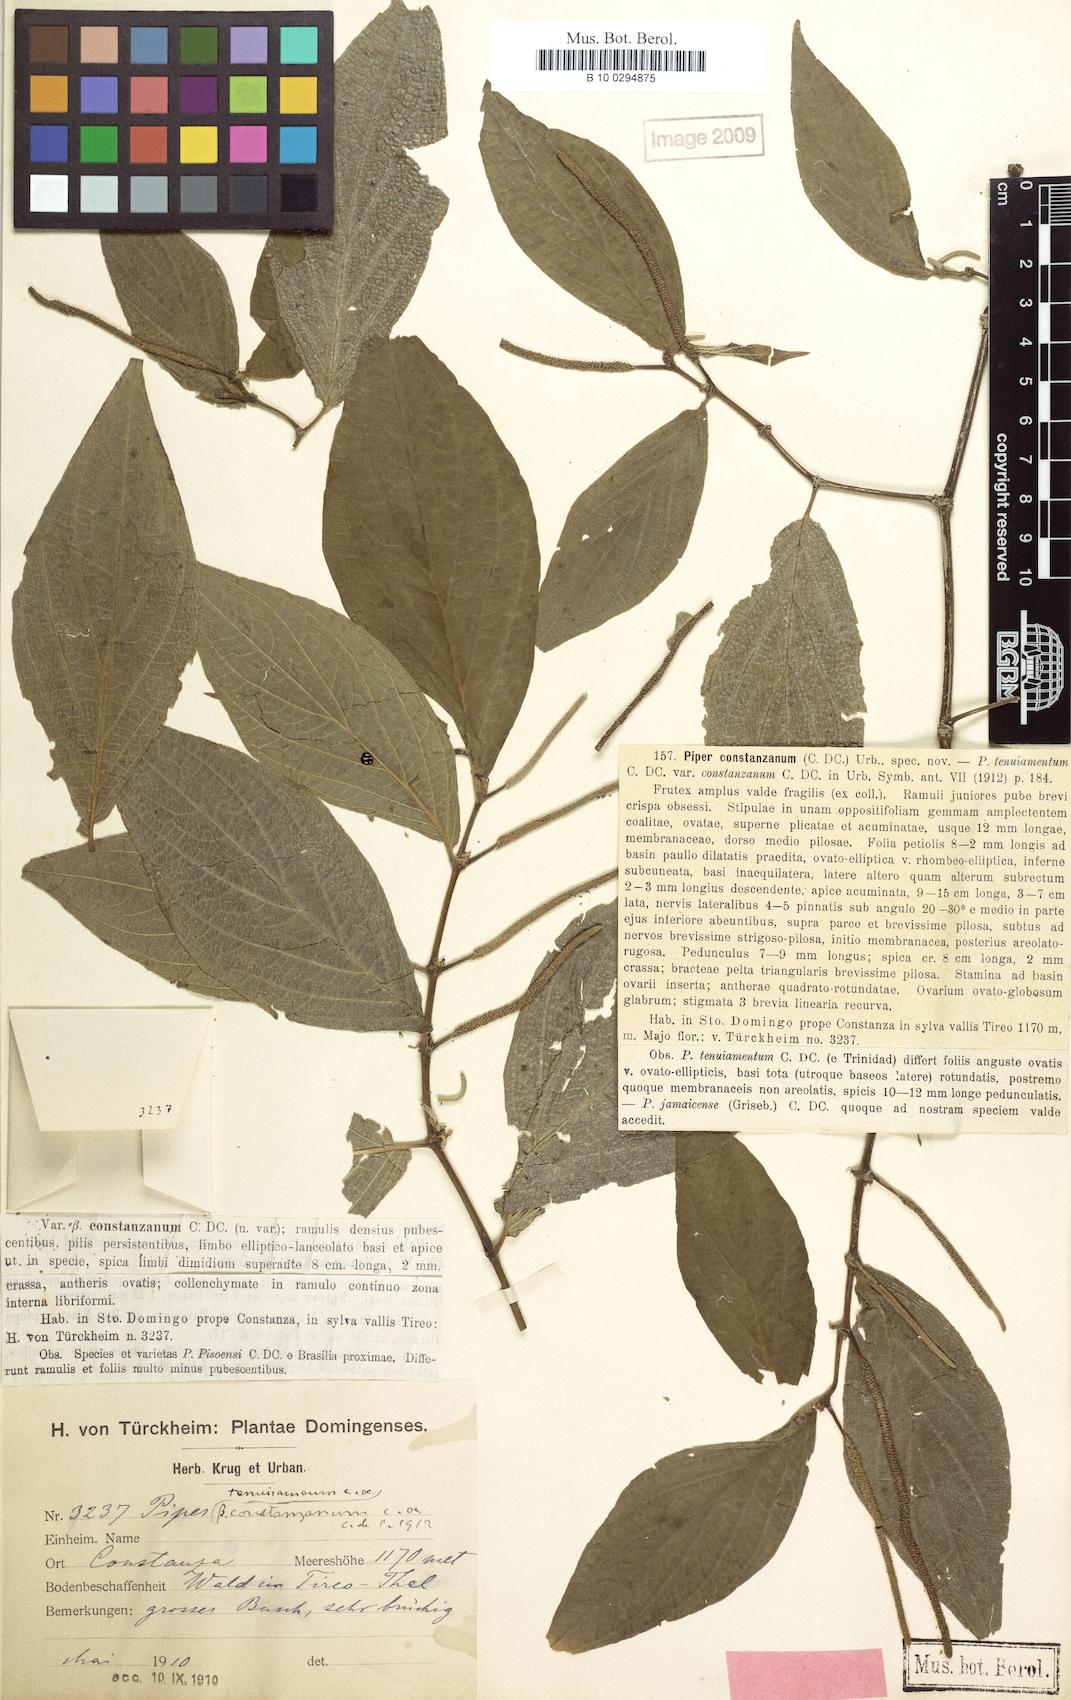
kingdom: Plantae
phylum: Tracheophyta
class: Magnoliopsida
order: Piperales
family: Piperaceae
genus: Piper
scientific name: Piper constanzanum
